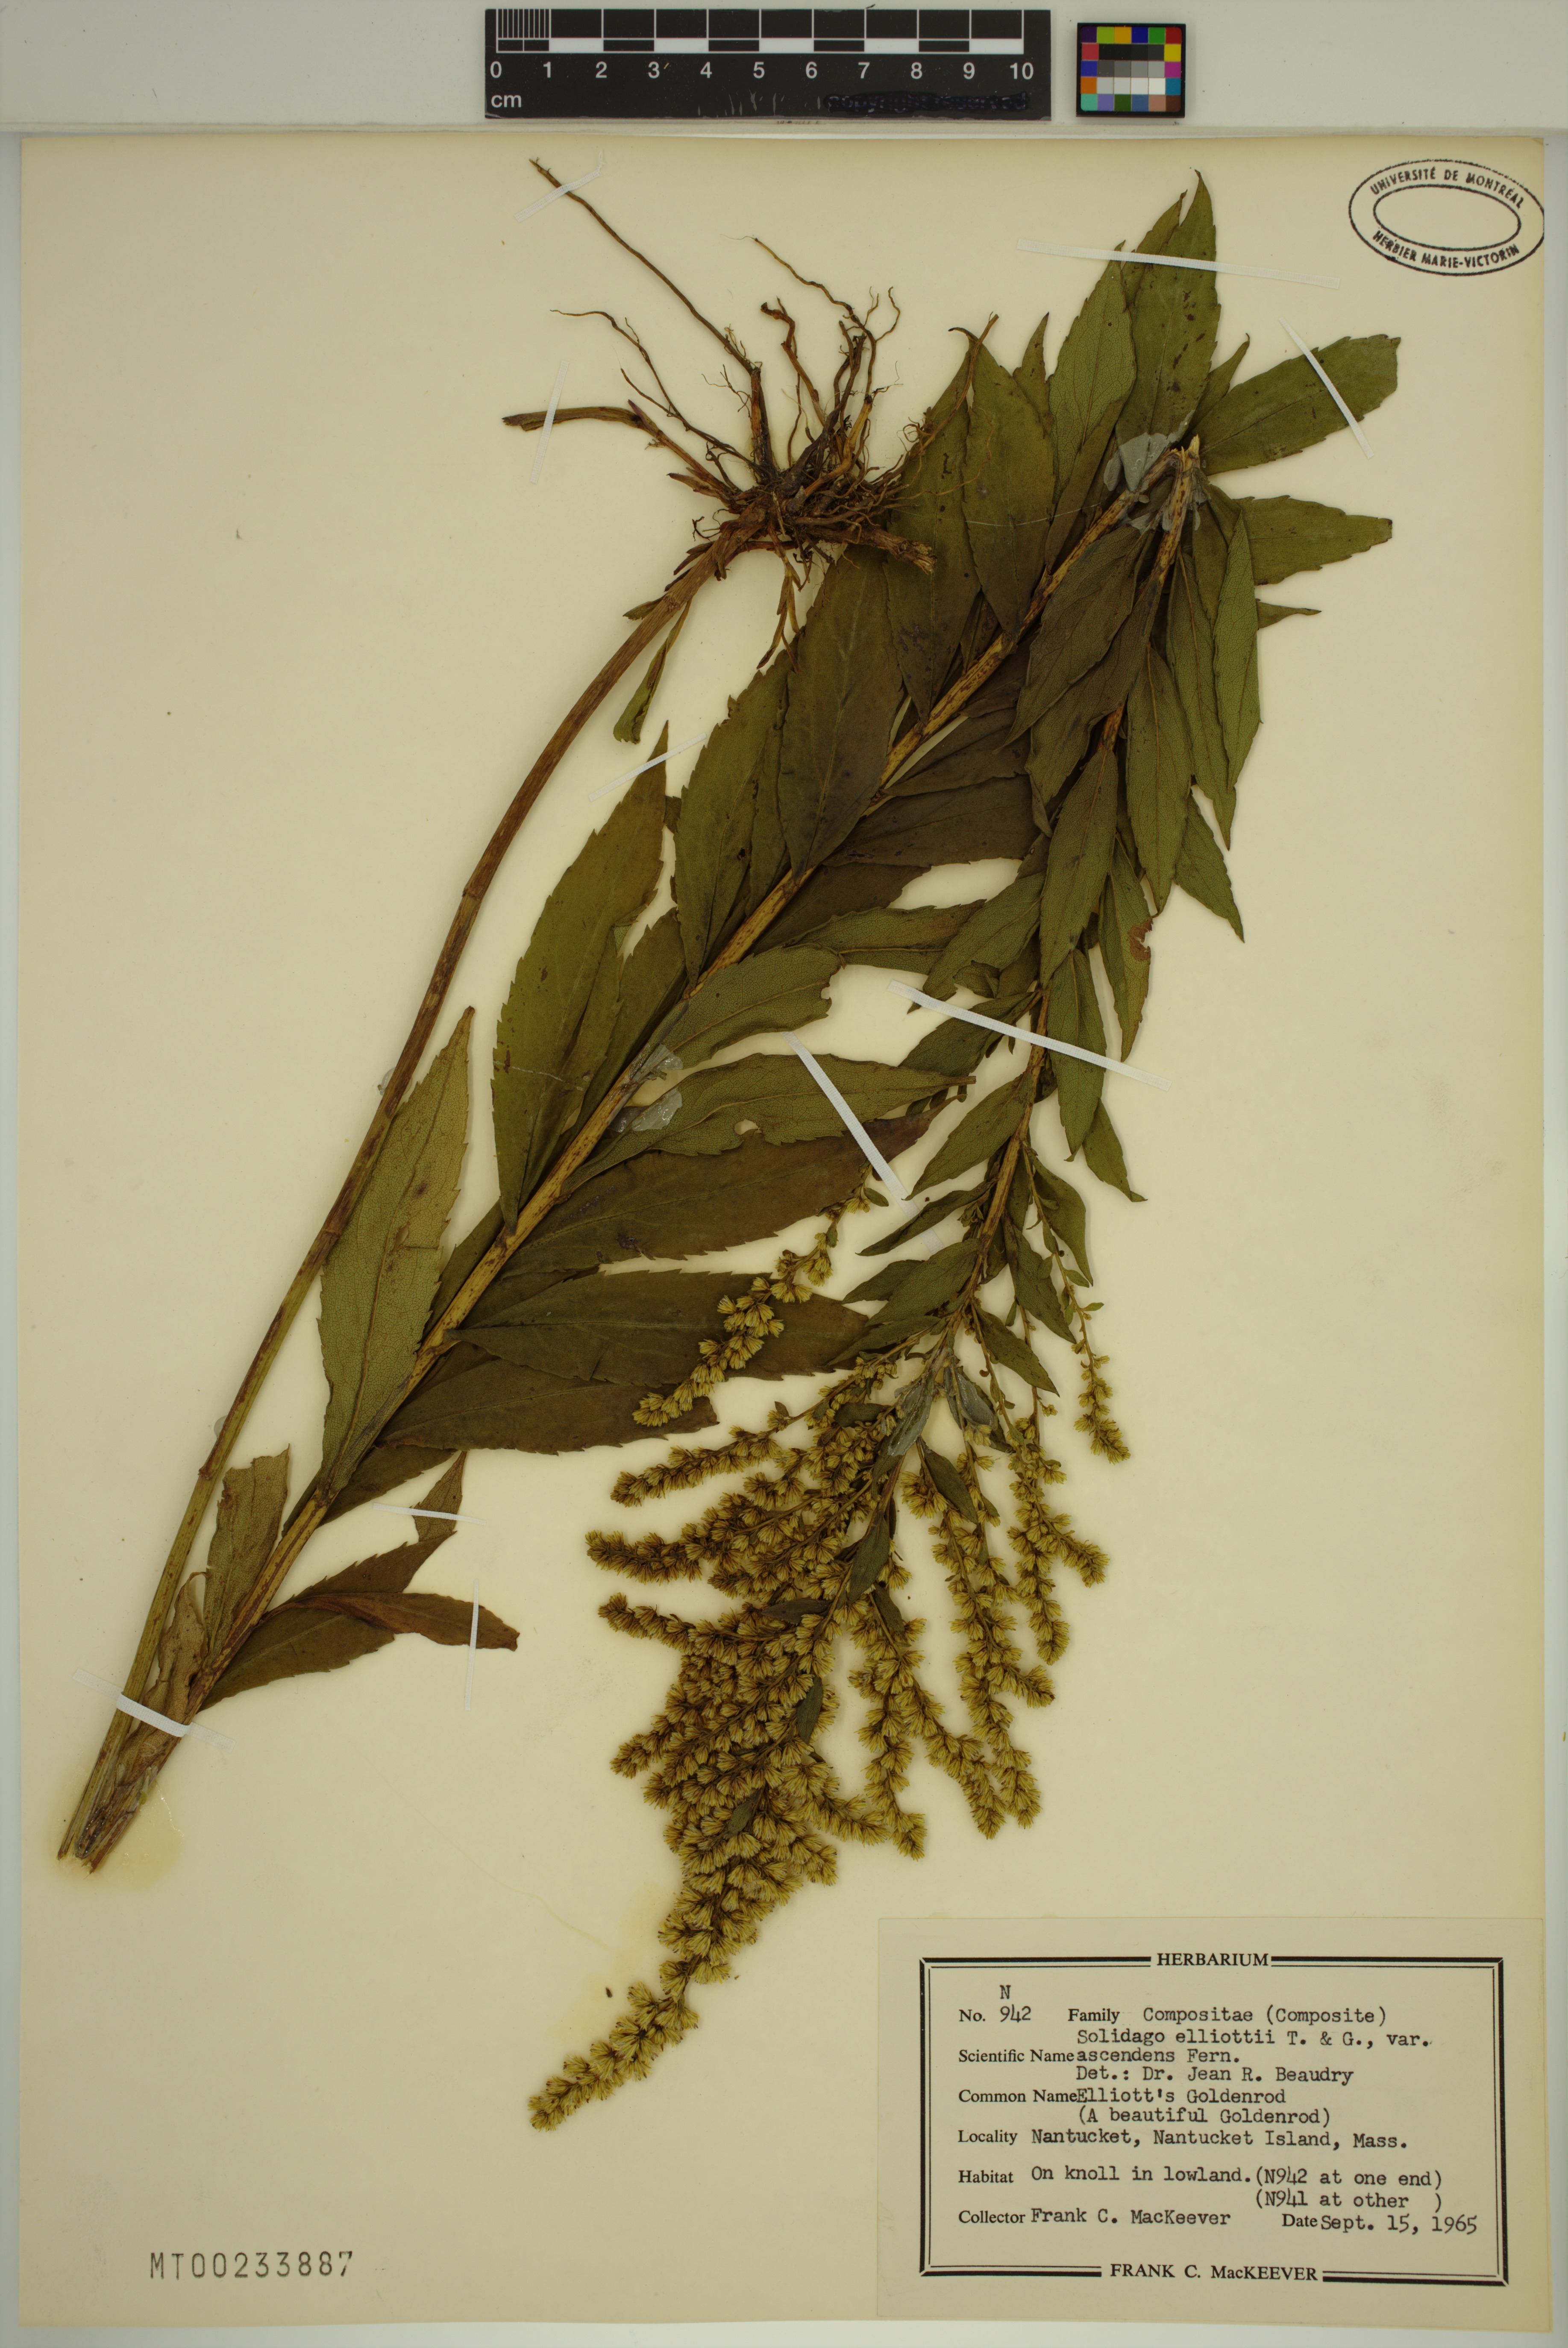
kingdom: Plantae
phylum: Tracheophyta
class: Magnoliopsida
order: Asterales
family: Asteraceae
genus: Solidago
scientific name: Solidago latissimifolia
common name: Elliott's goldenrod
